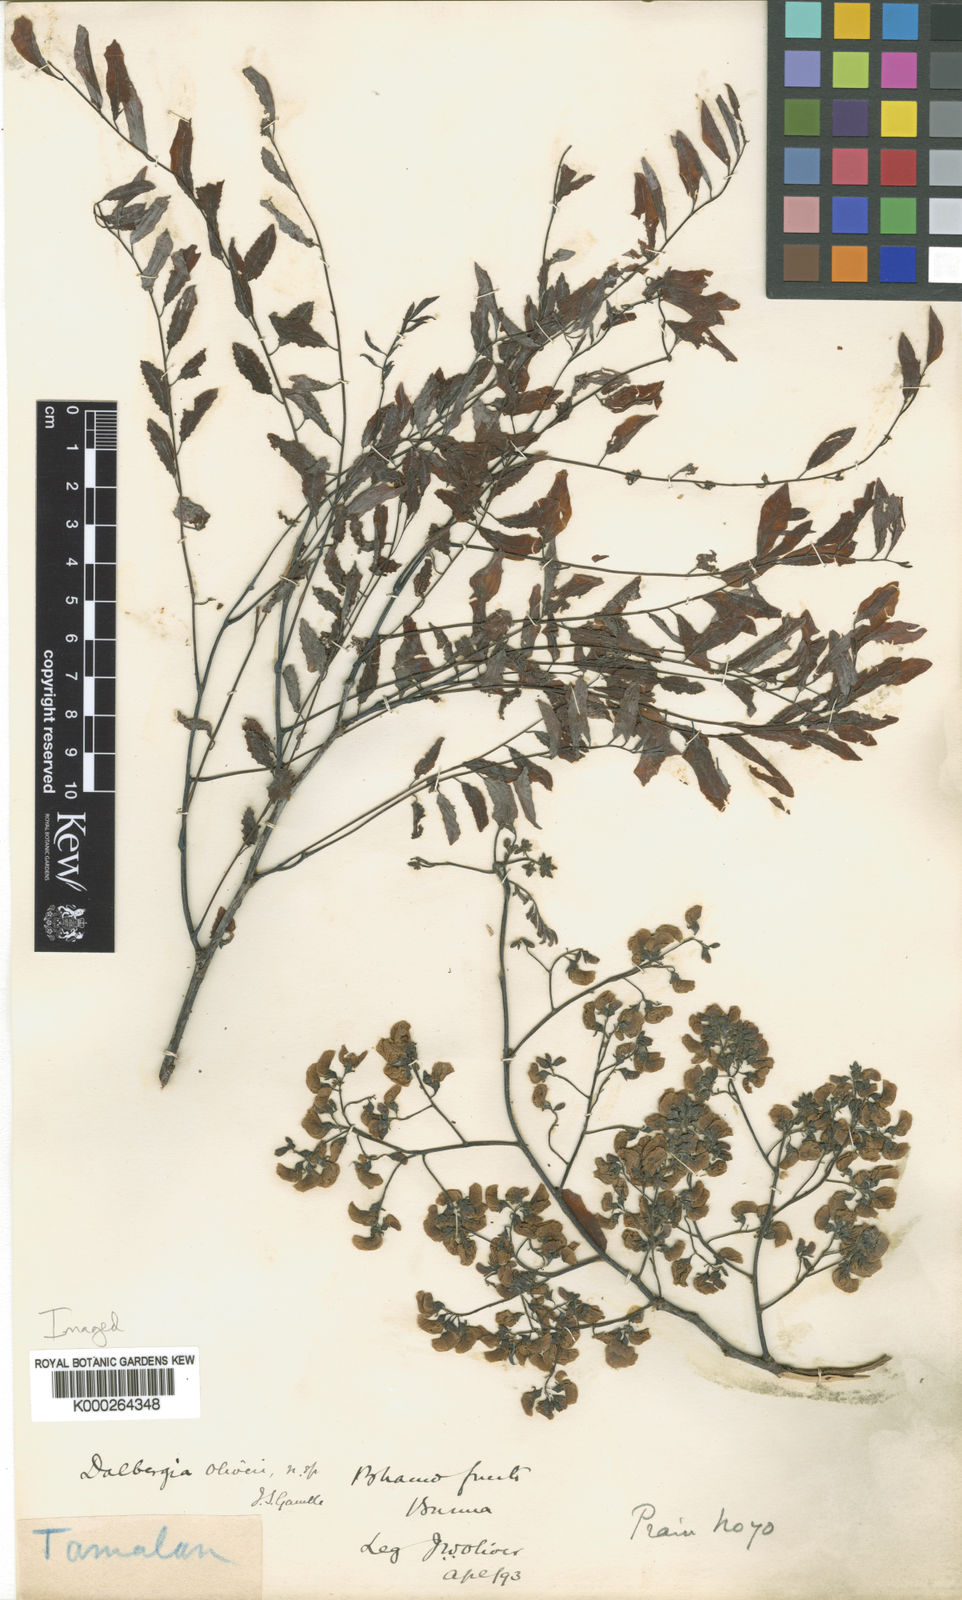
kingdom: Plantae
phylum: Tracheophyta
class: Magnoliopsida
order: Fabales
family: Fabaceae
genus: Dalbergia
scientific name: Dalbergia oliveri
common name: Burmese rosewood
